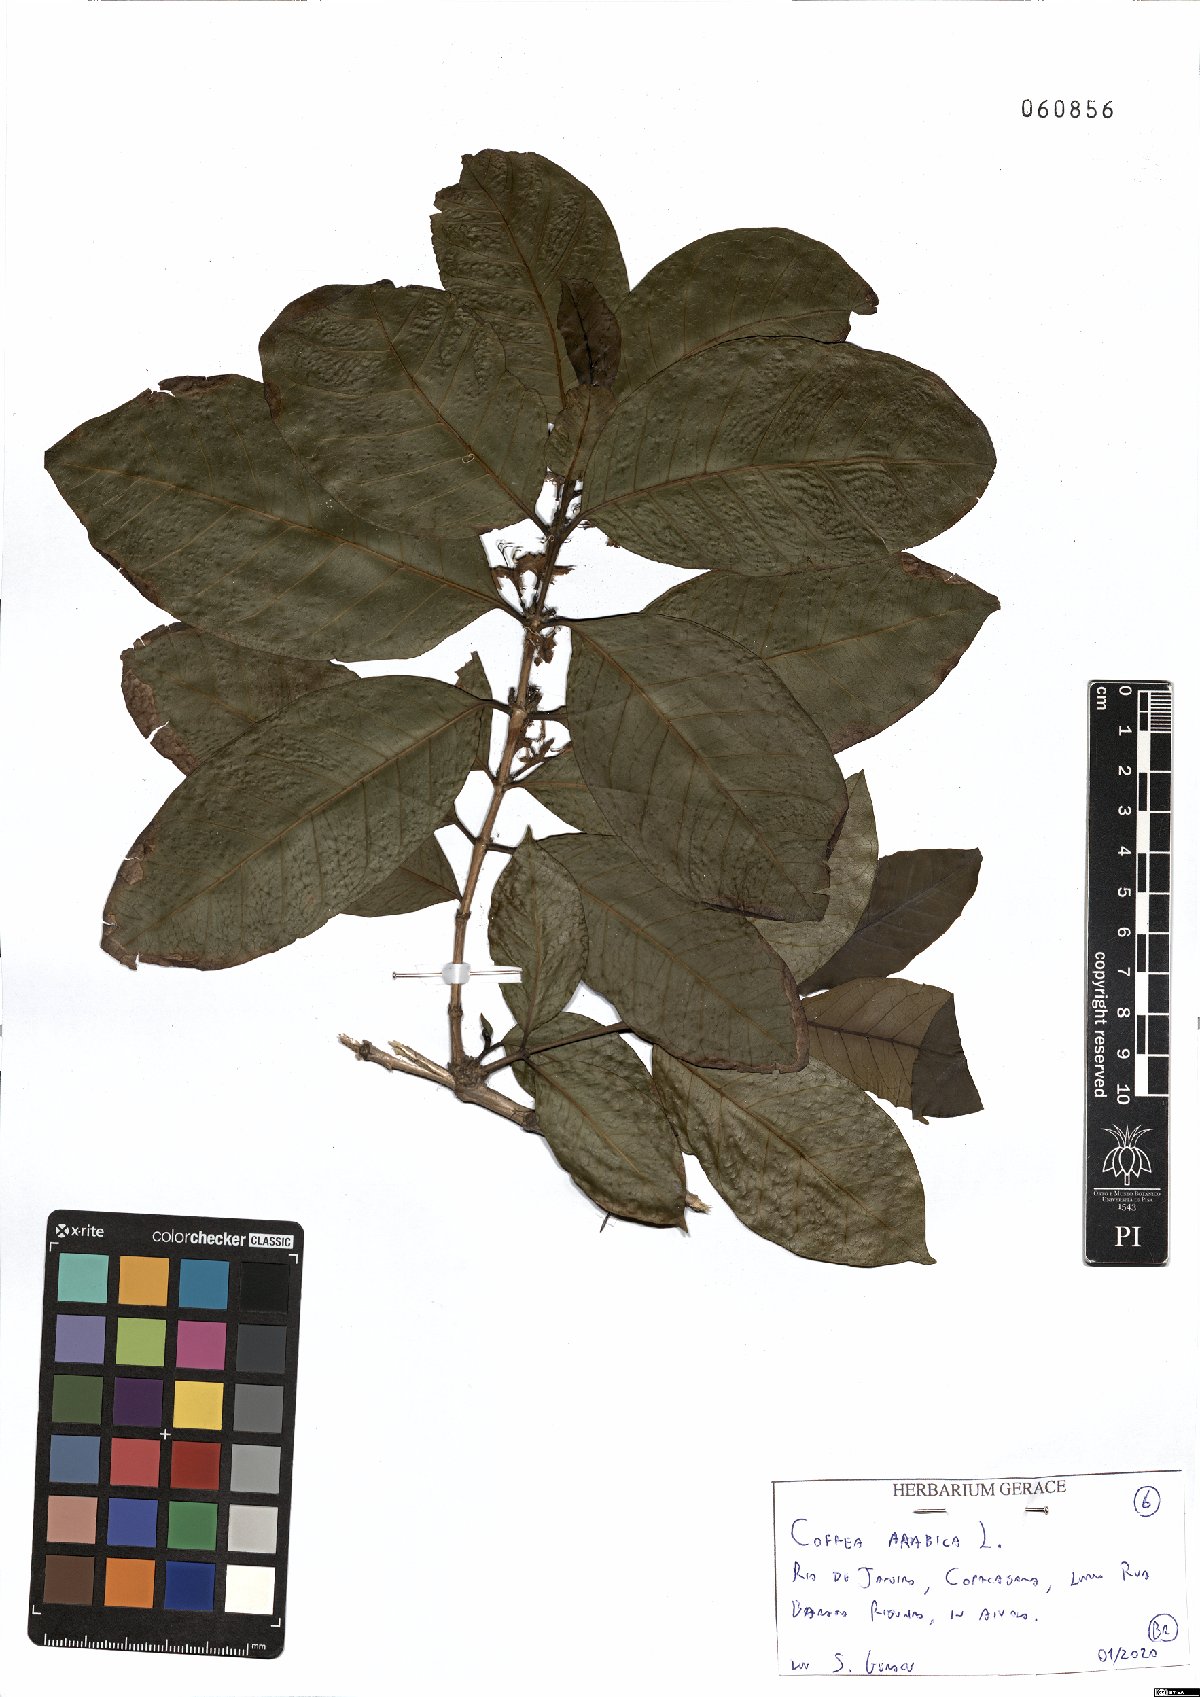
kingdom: Plantae
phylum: Tracheophyta
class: Magnoliopsida
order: Gentianales
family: Rubiaceae
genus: Coffea
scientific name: Coffea arabica
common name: Coffee
